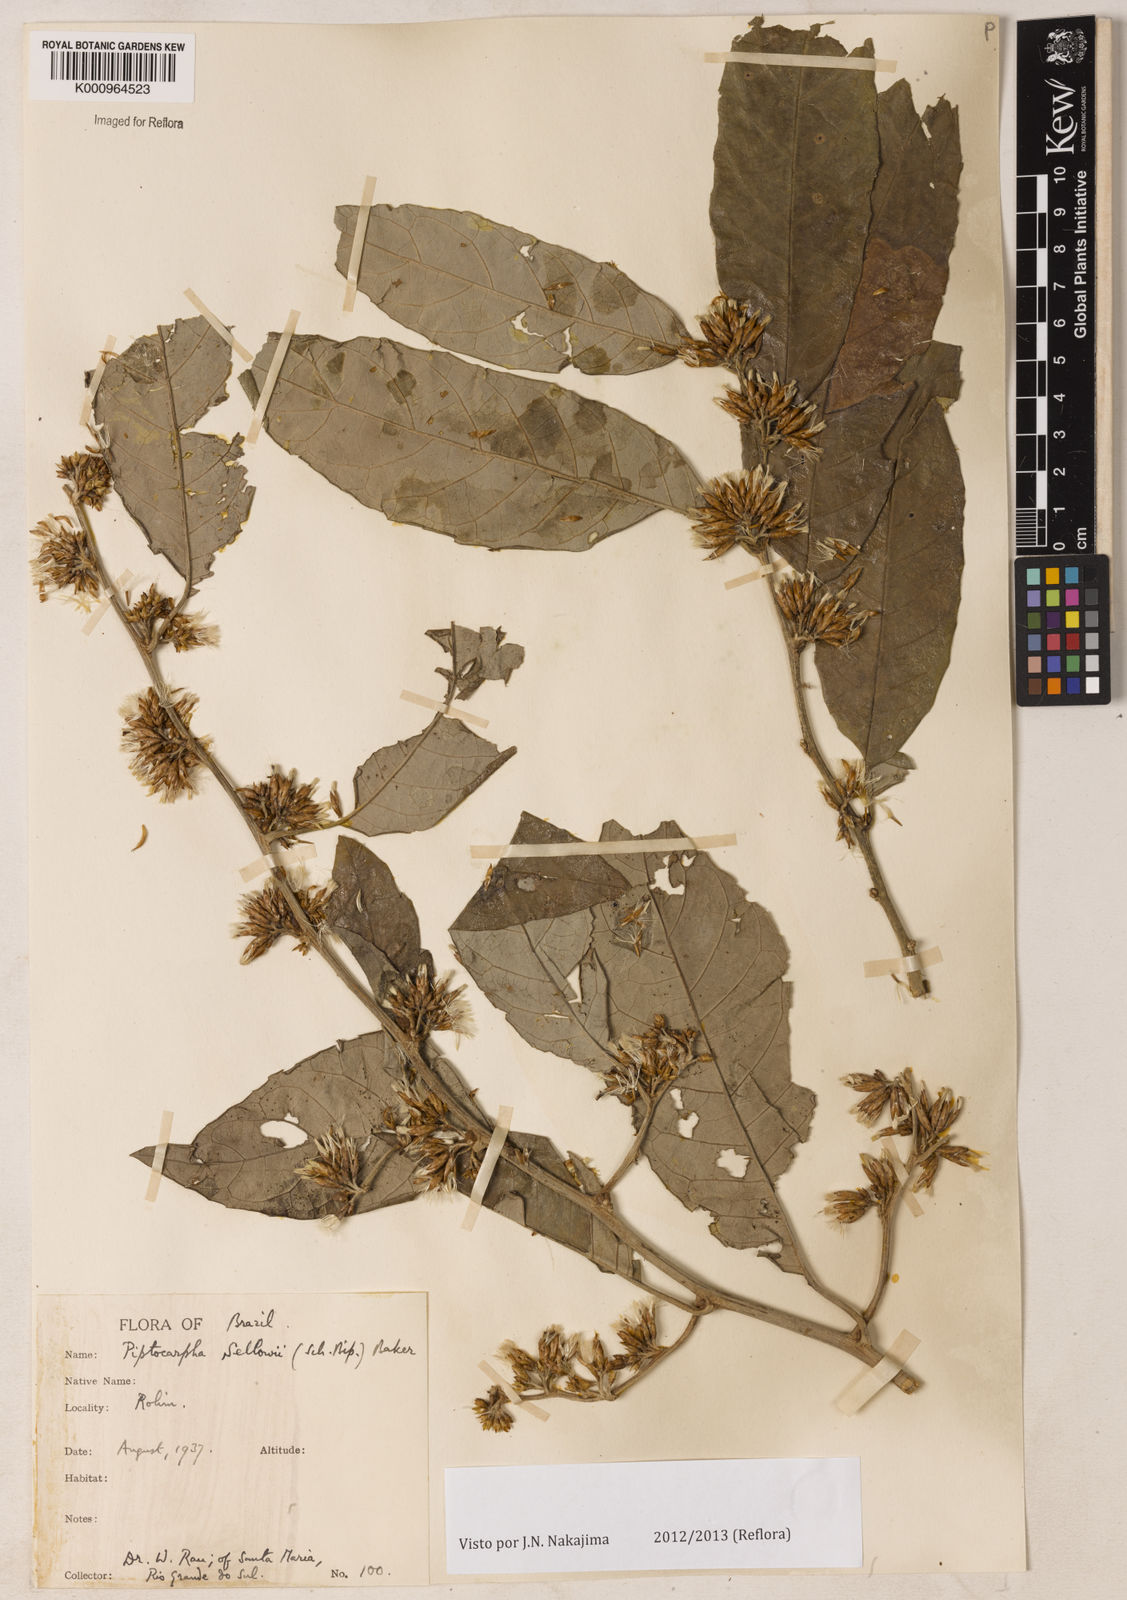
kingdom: Plantae
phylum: Tracheophyta
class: Magnoliopsida
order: Asterales
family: Asteraceae
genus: Piptocarpha
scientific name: Piptocarpha
